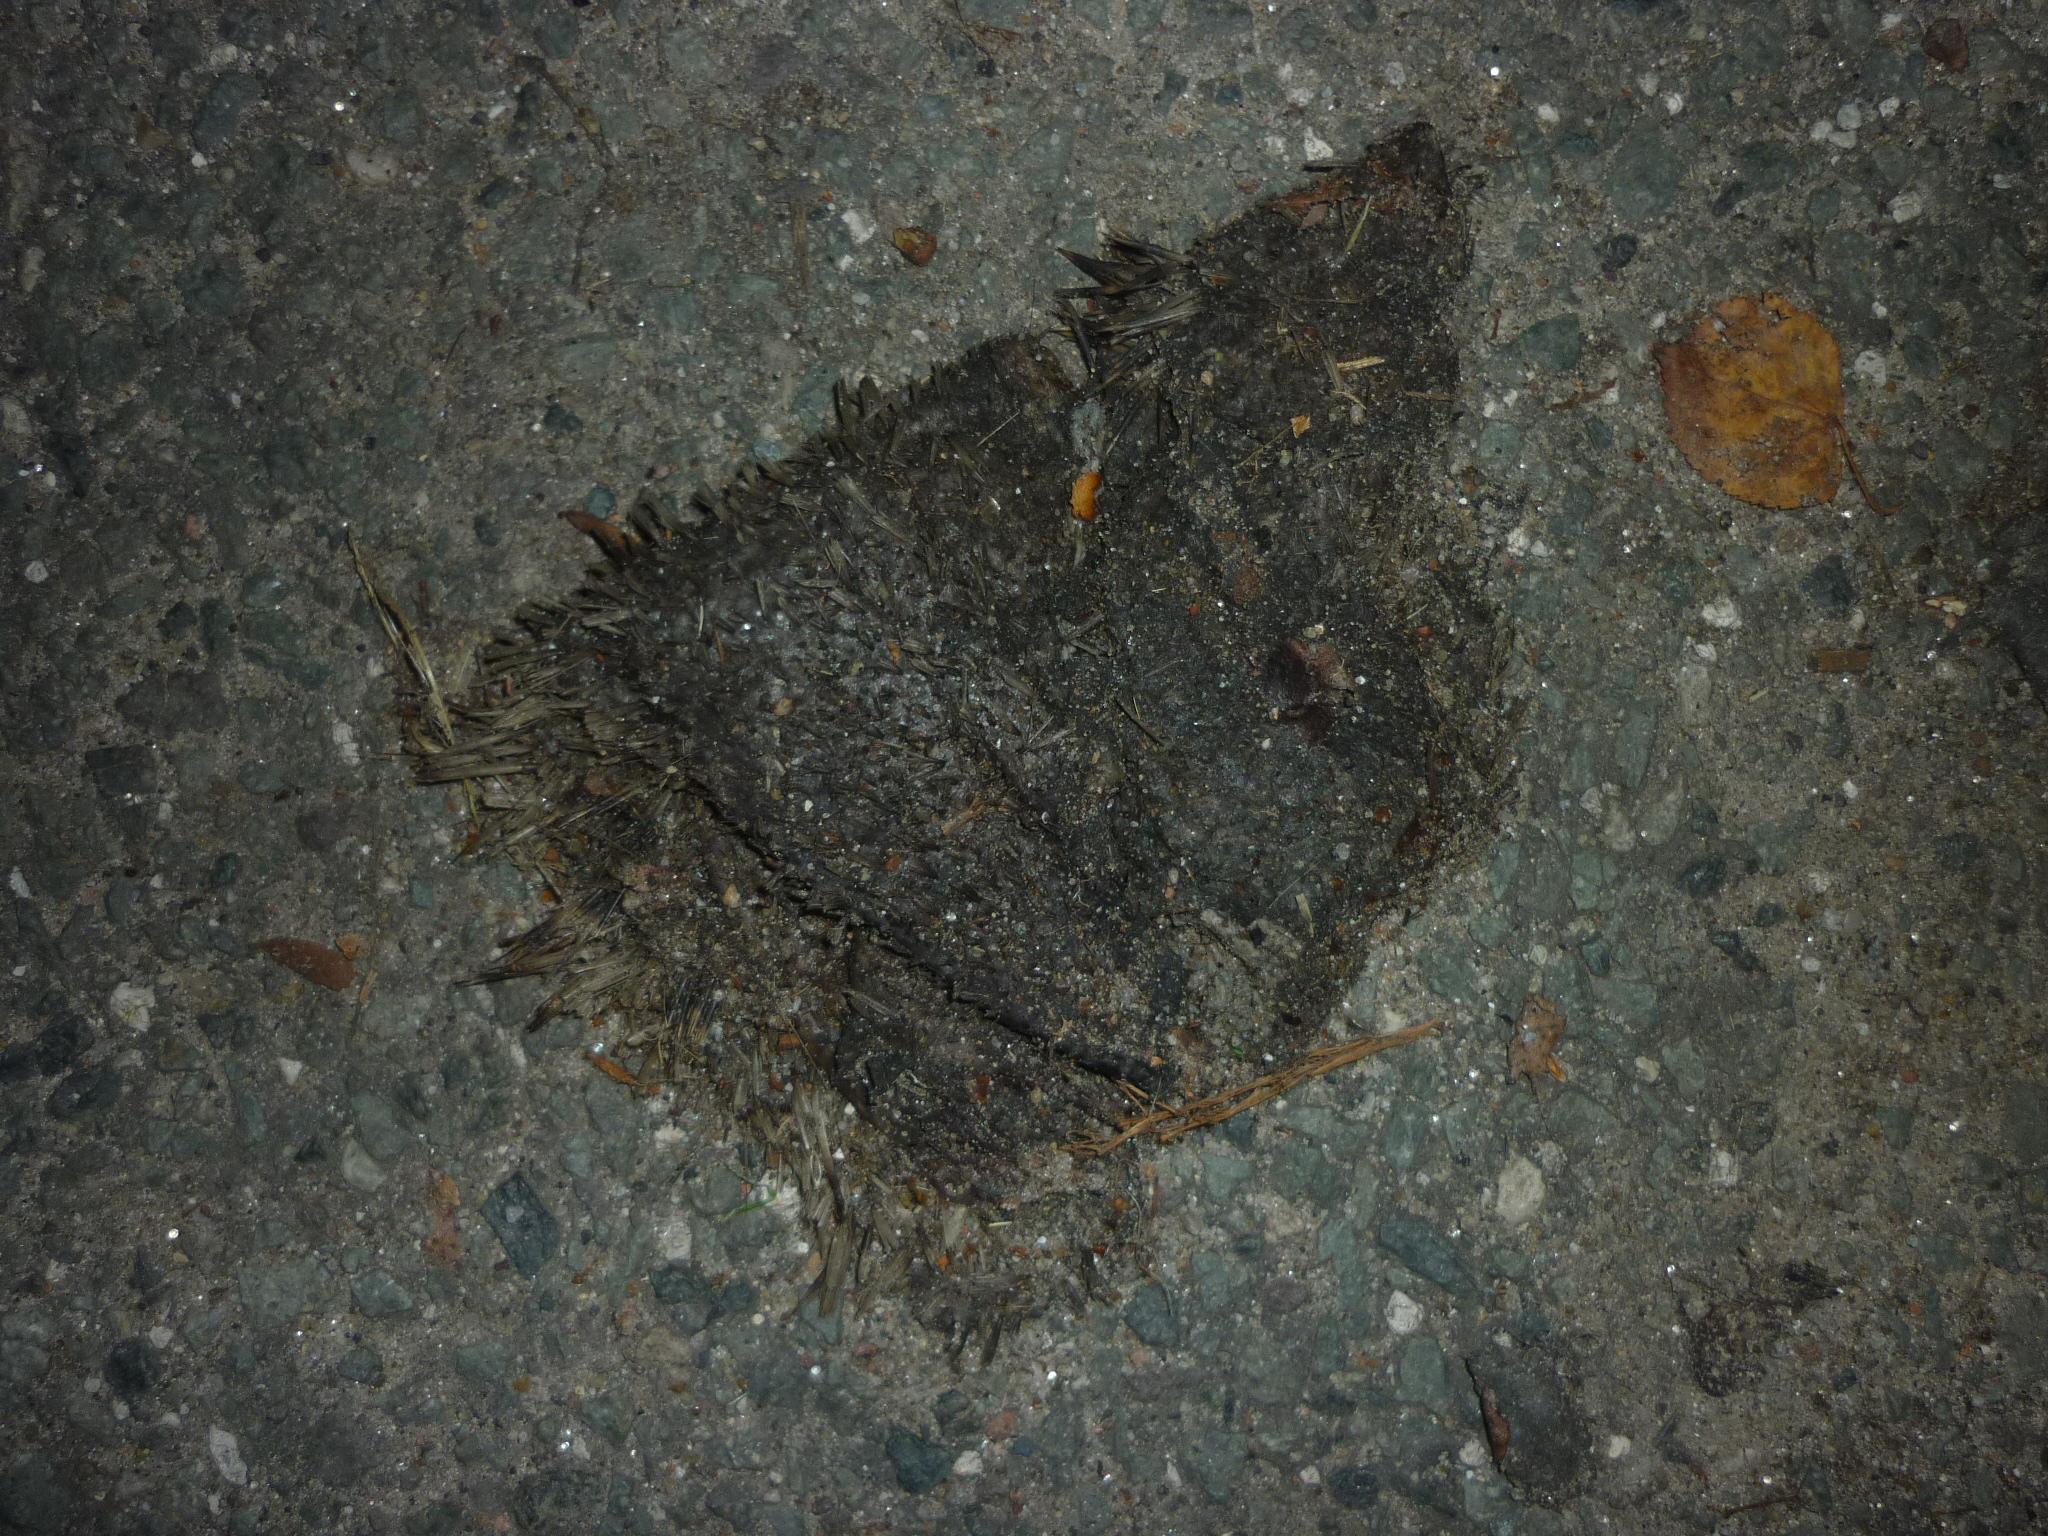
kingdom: Animalia
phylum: Chordata
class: Mammalia
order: Erinaceomorpha
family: Erinaceidae
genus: Erinaceus
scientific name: Erinaceus
